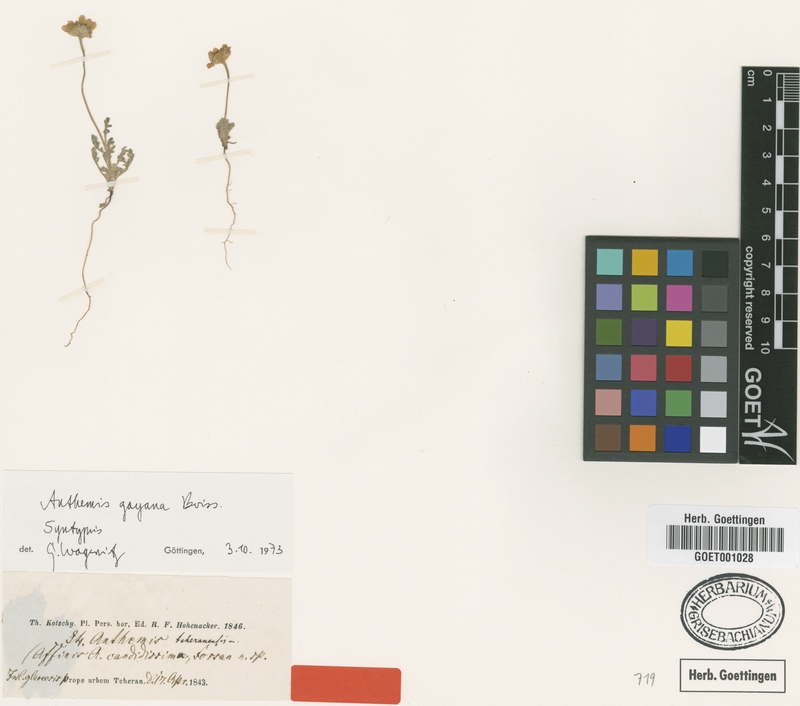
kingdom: Plantae
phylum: Tracheophyta
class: Magnoliopsida
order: Asterales
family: Asteraceae
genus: Anthemis
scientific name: Anthemis gayana
